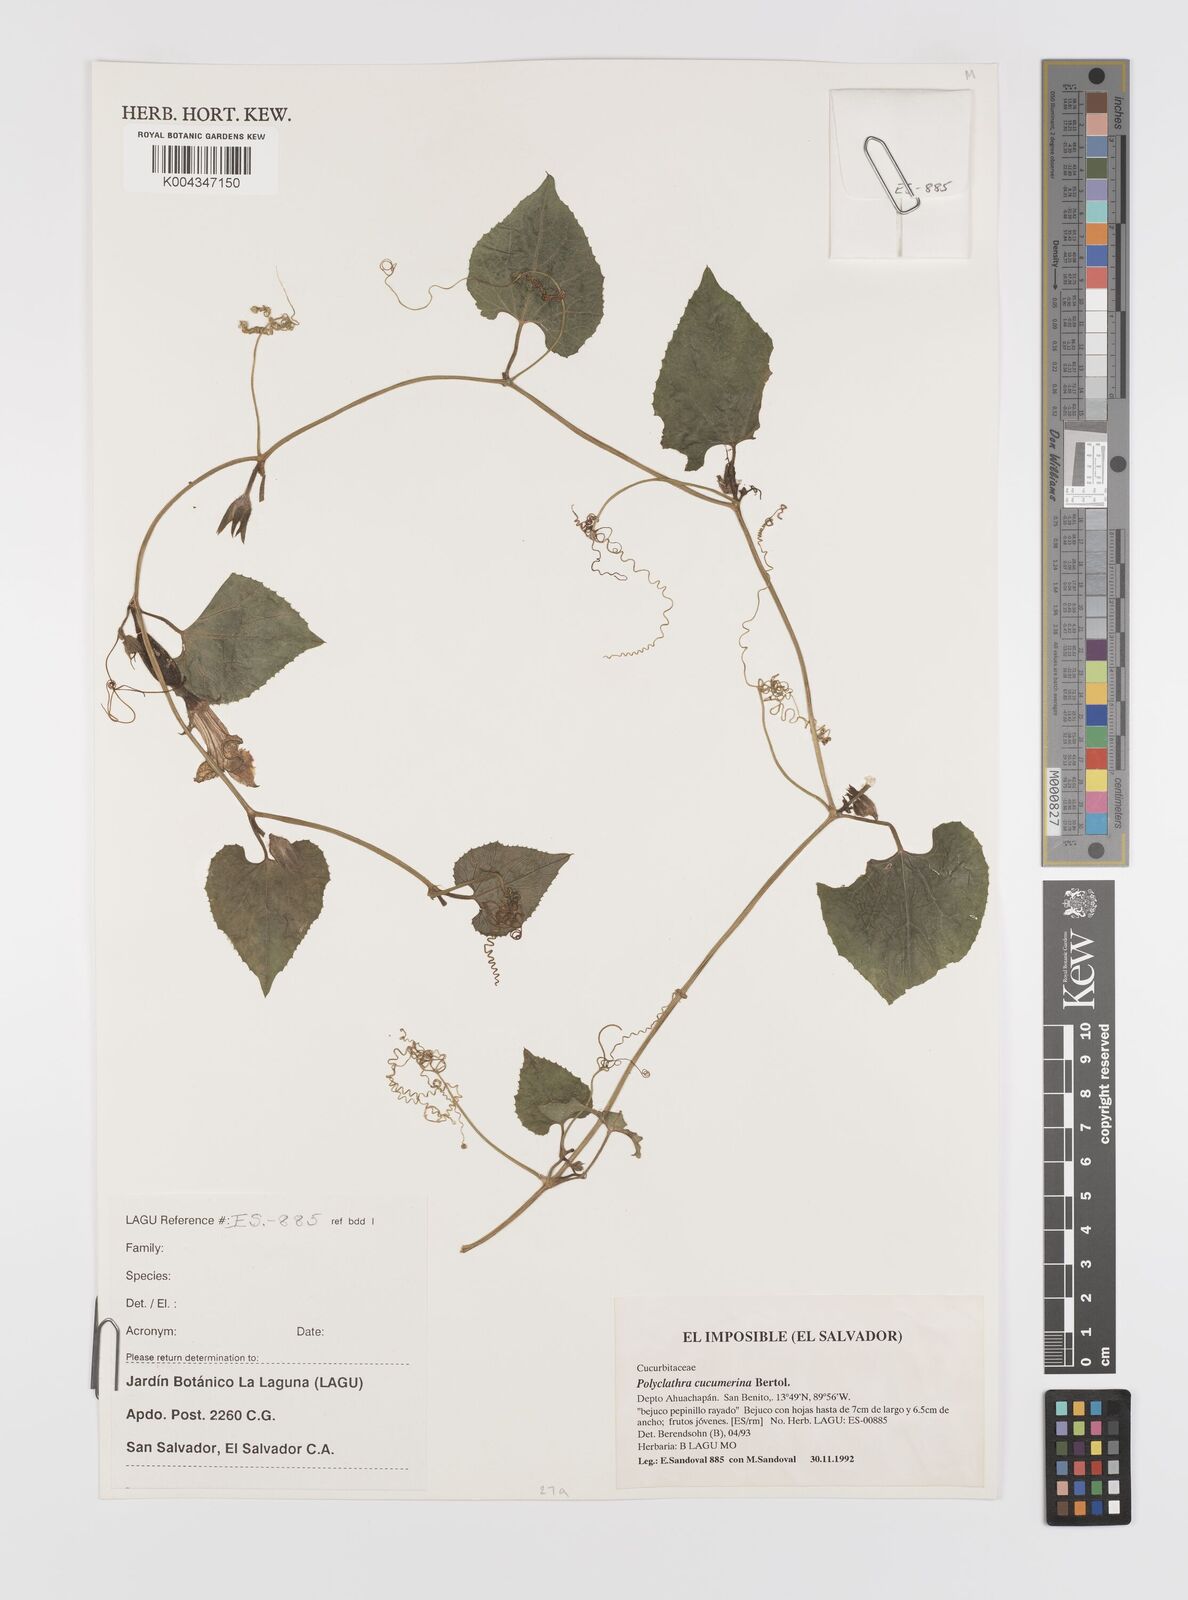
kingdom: Plantae
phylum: Tracheophyta
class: Magnoliopsida
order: Cucurbitales
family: Cucurbitaceae
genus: Polyclathra
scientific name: Polyclathra cucumerina
